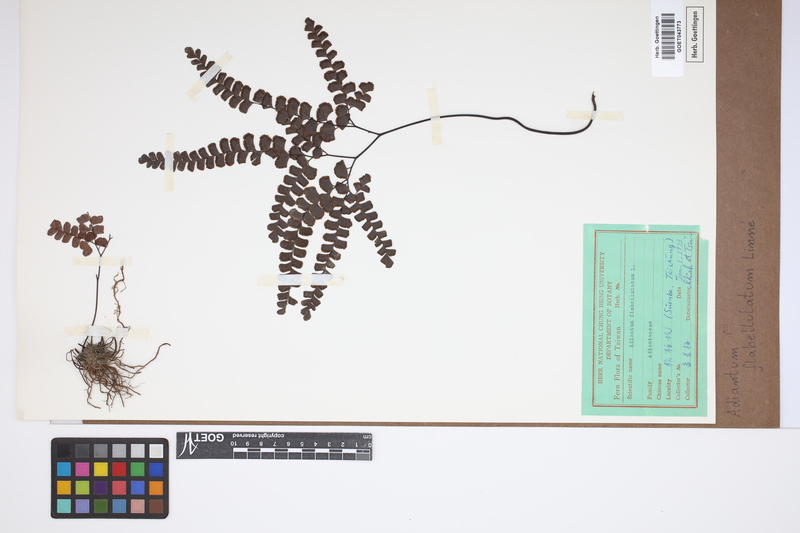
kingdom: Plantae
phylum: Tracheophyta
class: Polypodiopsida
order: Polypodiales
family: Pteridaceae
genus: Adiantum
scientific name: Adiantum flabellulatum
